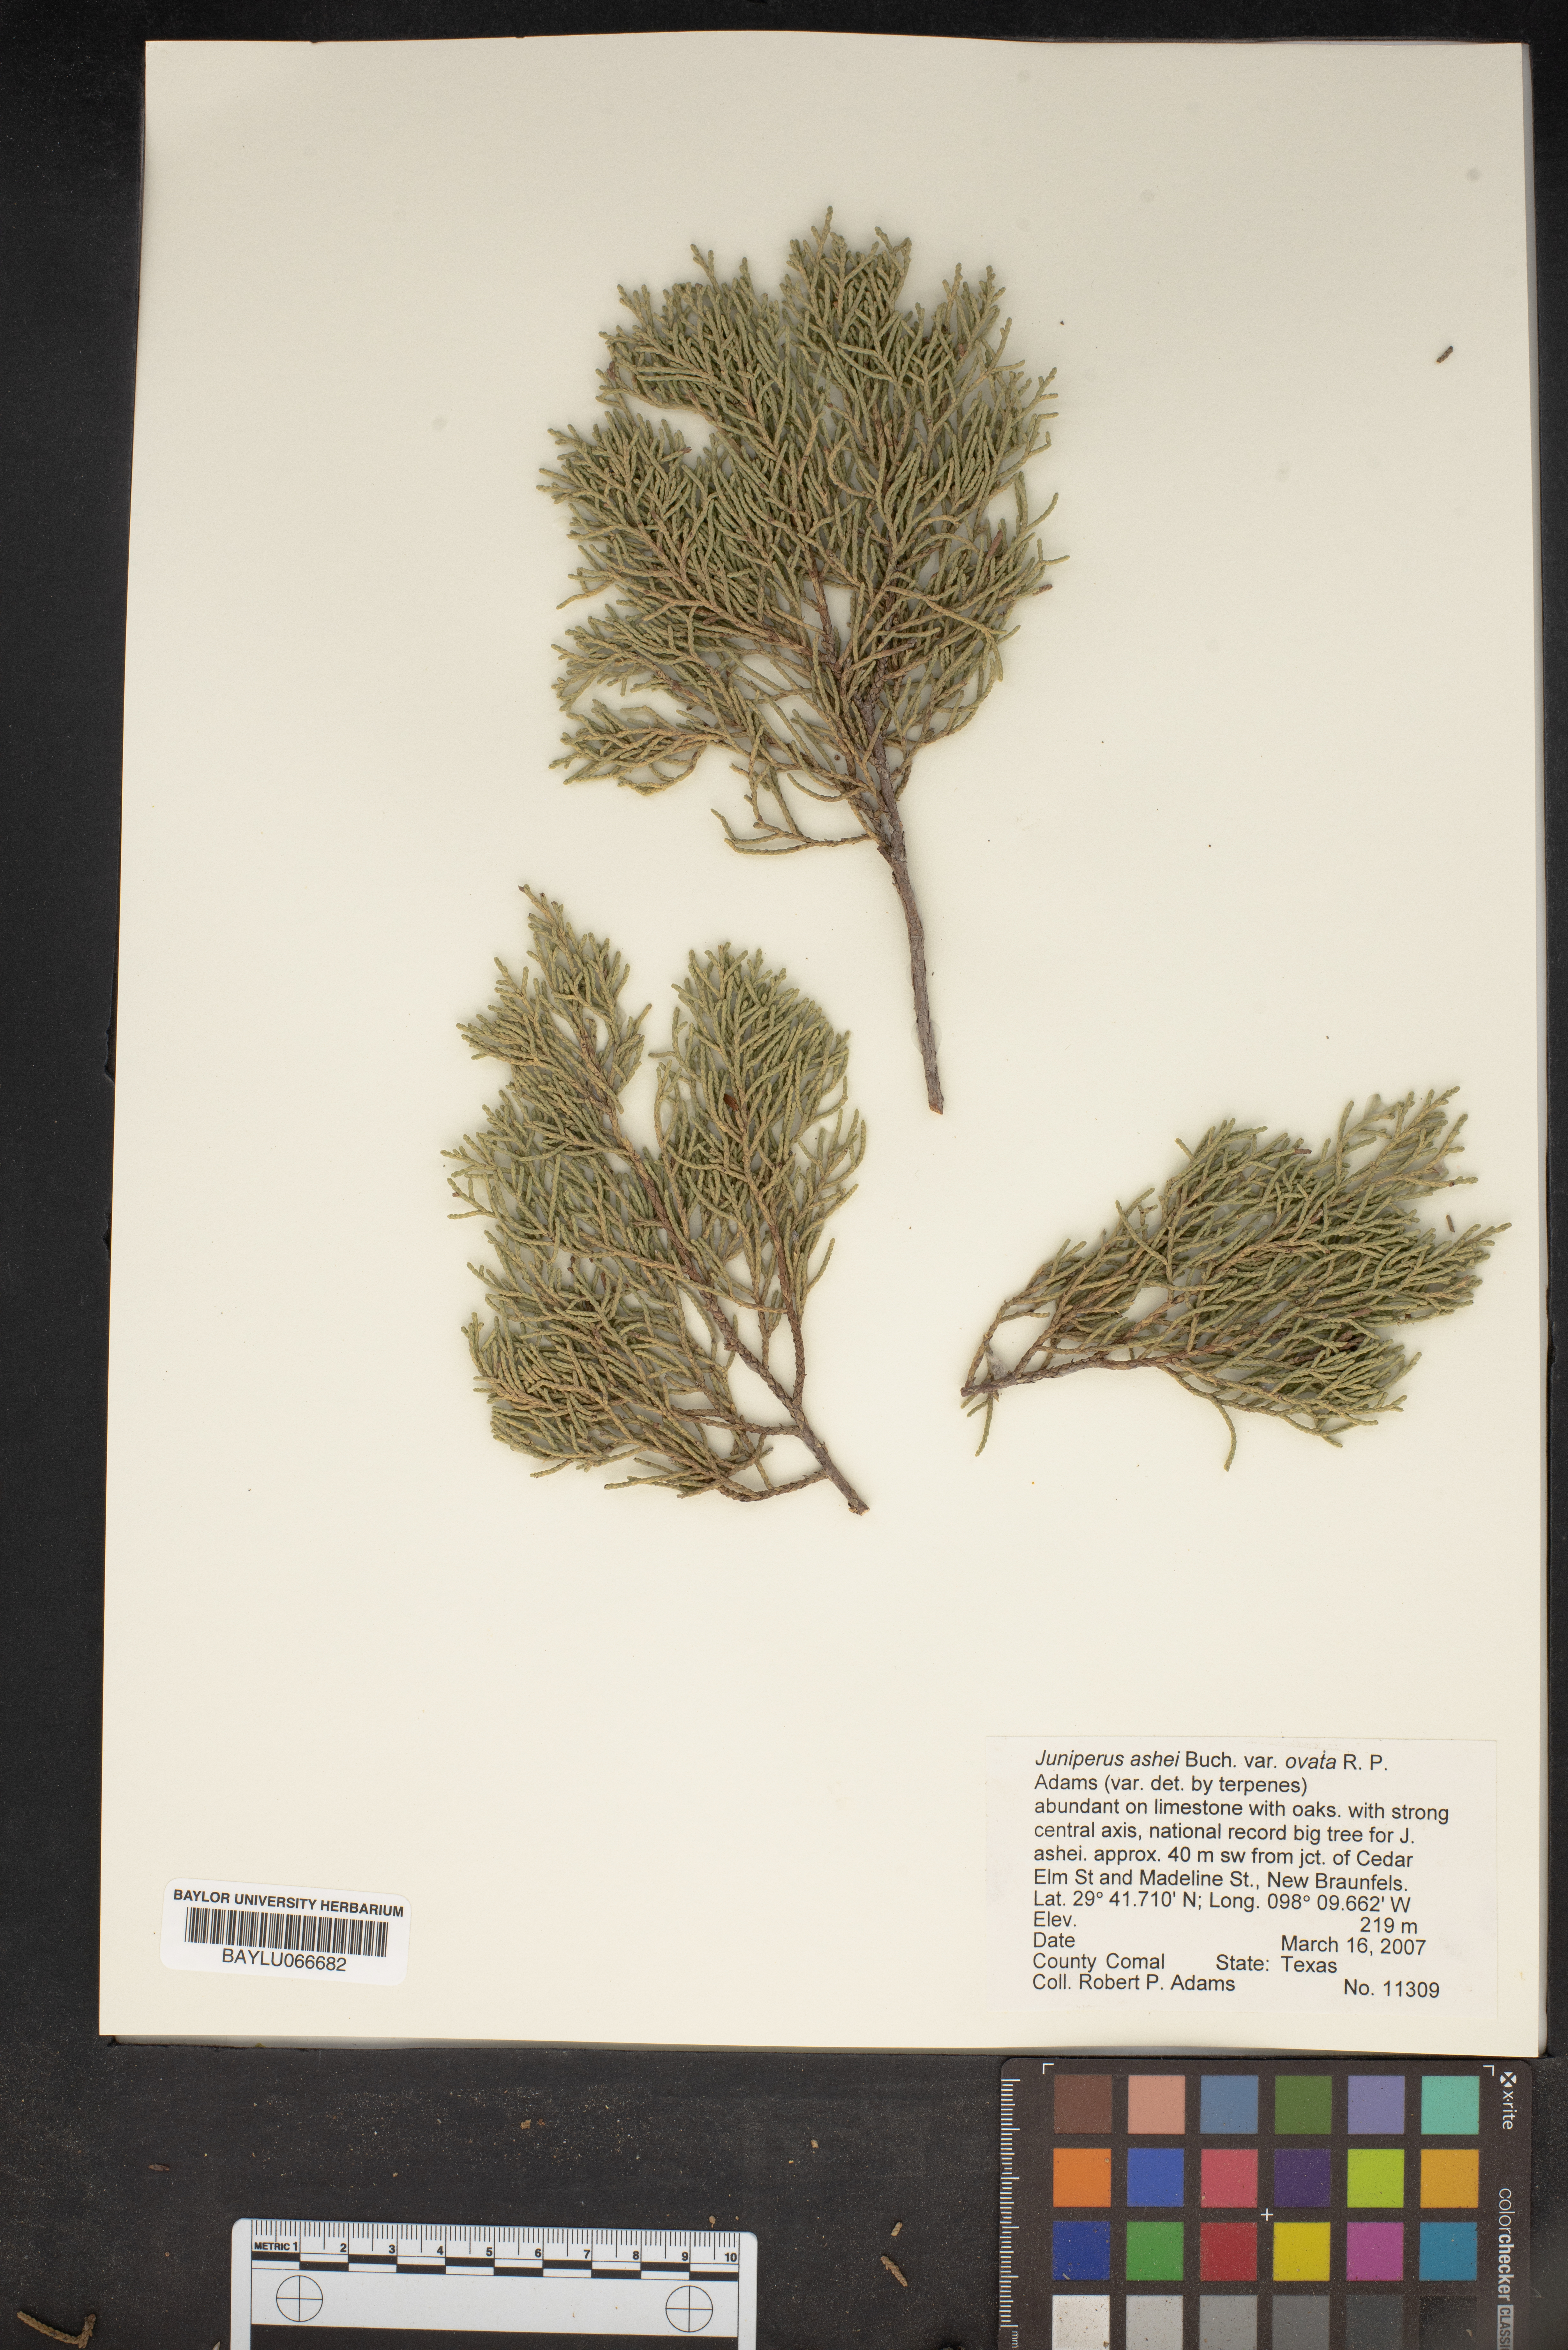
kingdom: Plantae
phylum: Tracheophyta
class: Pinopsida
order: Pinales
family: Cupressaceae
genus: Juniperus
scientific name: Juniperus ashei
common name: Mexican juniper
